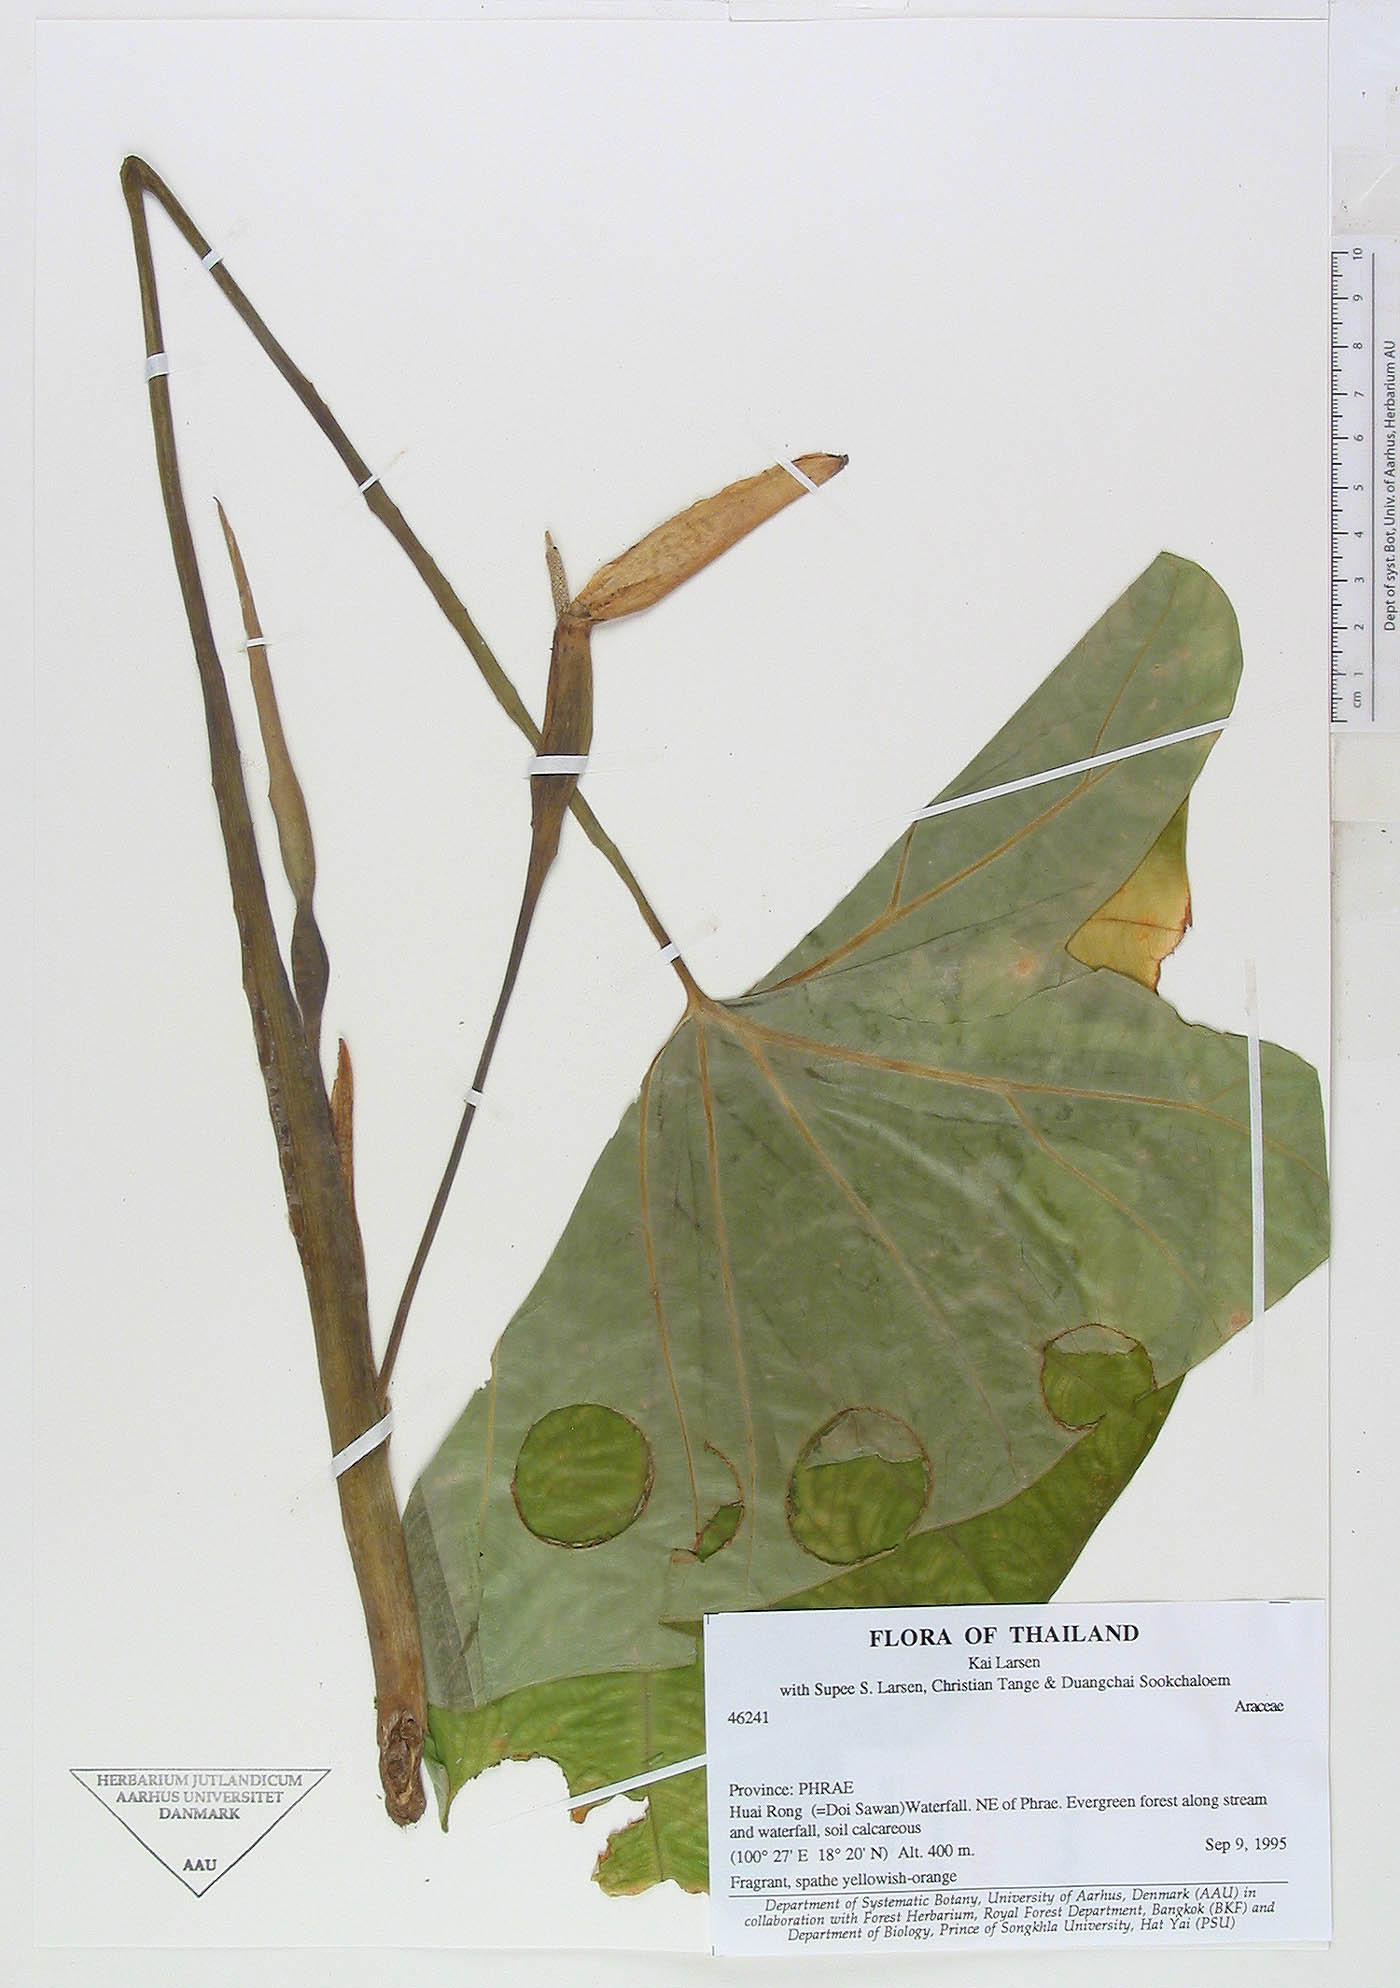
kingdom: Plantae
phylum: Tracheophyta
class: Liliopsida
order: Alismatales
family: Araceae
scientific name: Araceae
